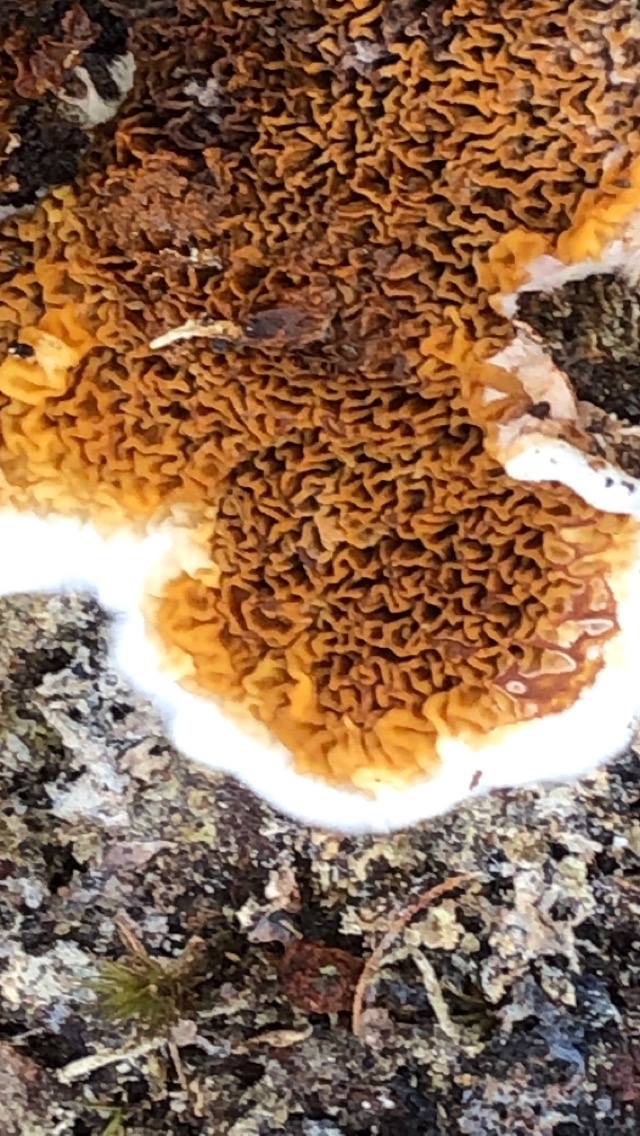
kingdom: Fungi
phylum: Basidiomycota
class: Agaricomycetes
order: Boletales
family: Serpulaceae
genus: Serpula
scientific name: Serpula himantioides
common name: tyndkødet hussvamp
